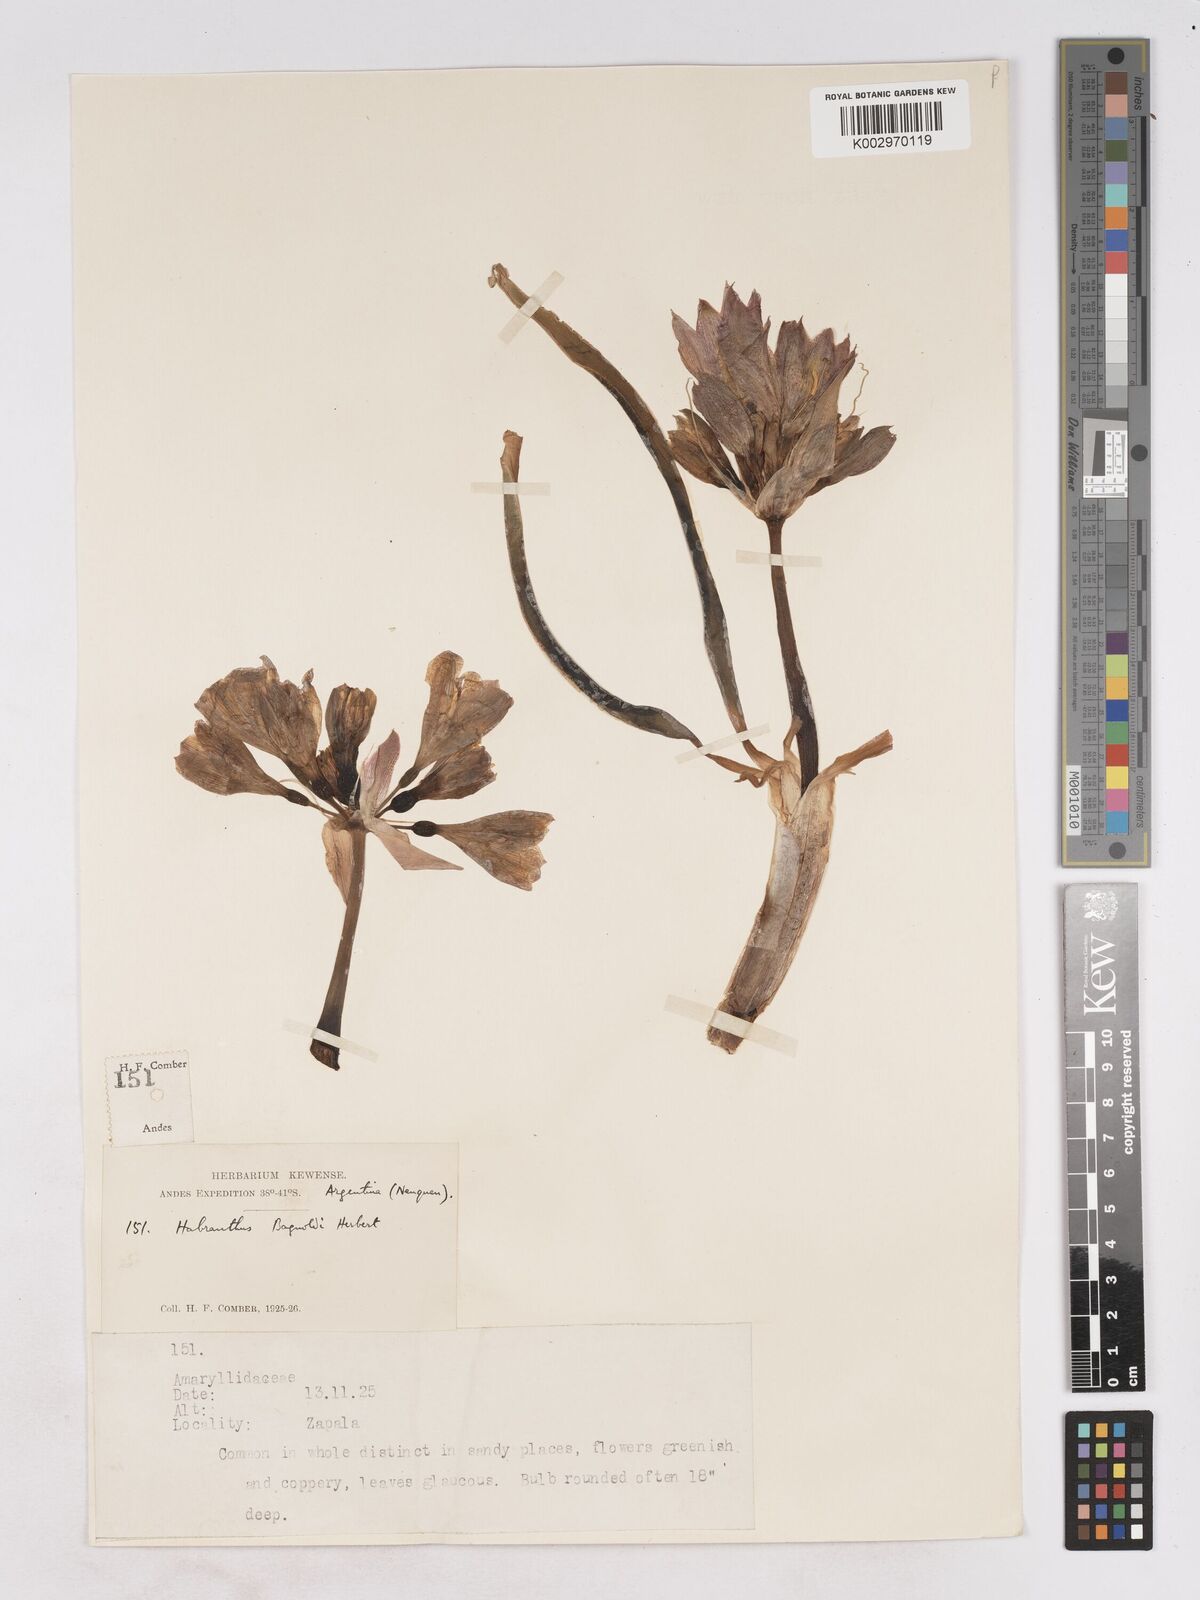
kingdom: Plantae
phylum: Tracheophyta
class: Liliopsida
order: Asparagales
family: Amaryllidaceae
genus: Zephyranthes
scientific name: Zephyranthes bagnoldii
